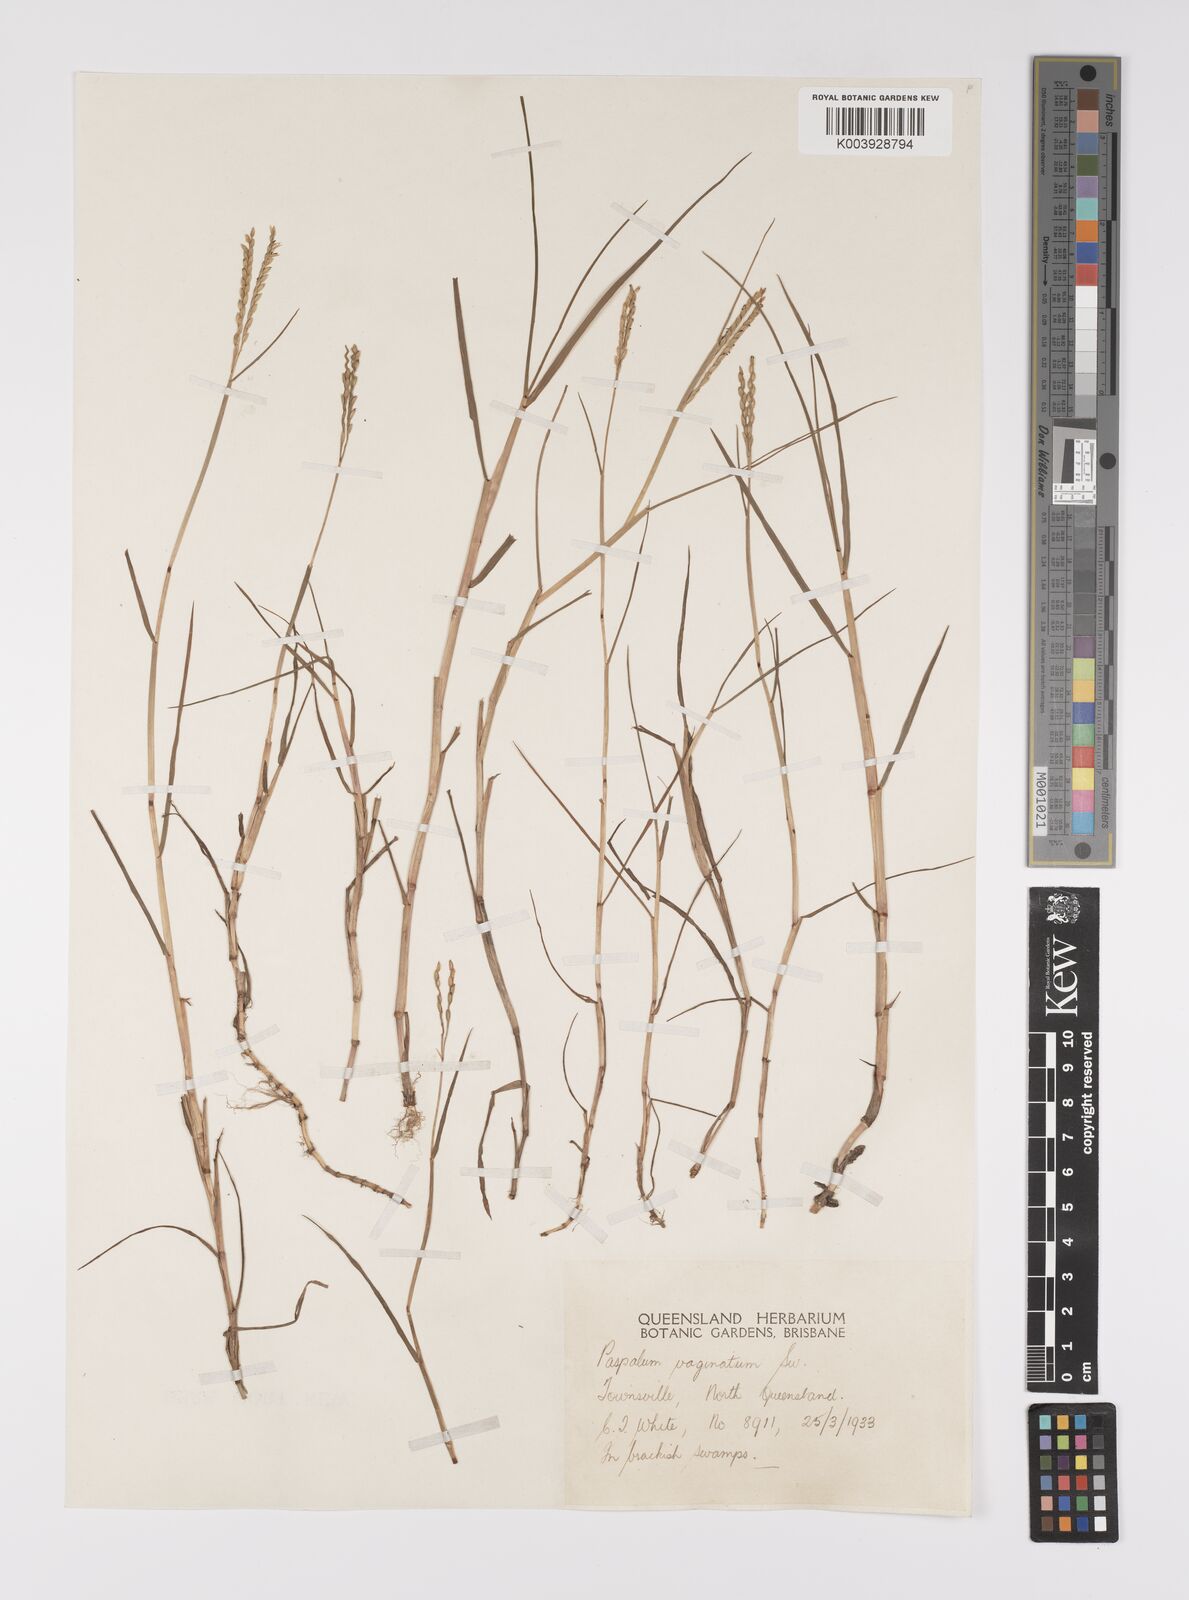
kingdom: Plantae
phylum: Tracheophyta
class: Liliopsida
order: Poales
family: Poaceae
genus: Paspalum
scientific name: Paspalum vaginatum
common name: Seashore paspalum
